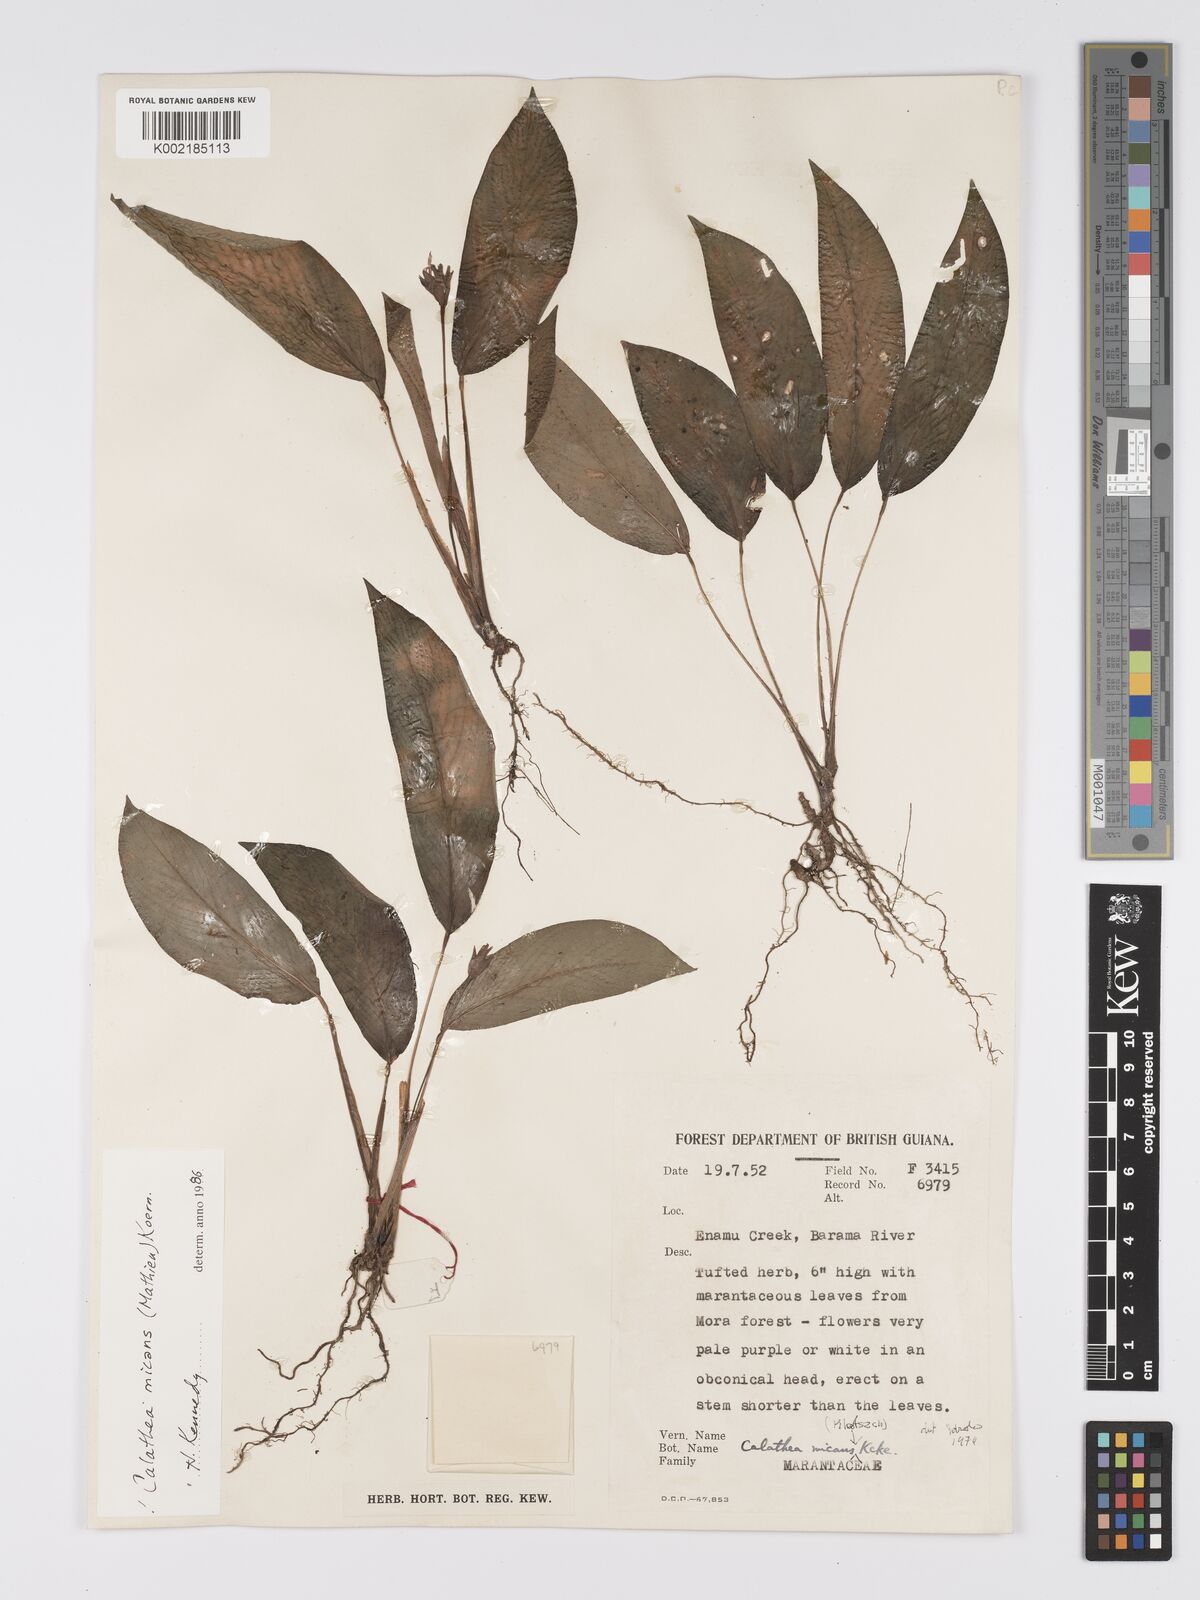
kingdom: Plantae
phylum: Tracheophyta
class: Liliopsida
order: Zingiberales
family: Marantaceae
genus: Goeppertia
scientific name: Goeppertia micans
